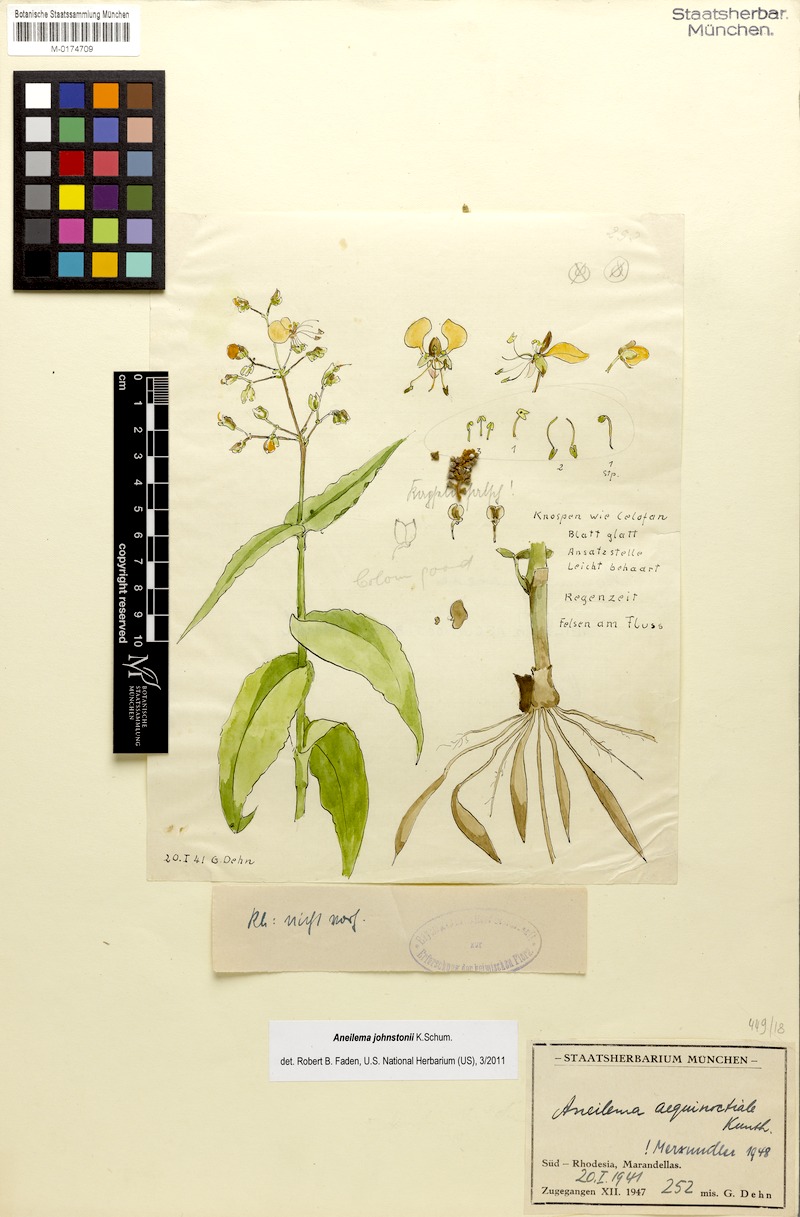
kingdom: Plantae
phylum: Tracheophyta
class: Liliopsida
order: Commelinales
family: Commelinaceae
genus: Aneilema
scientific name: Aneilema johnstonii
